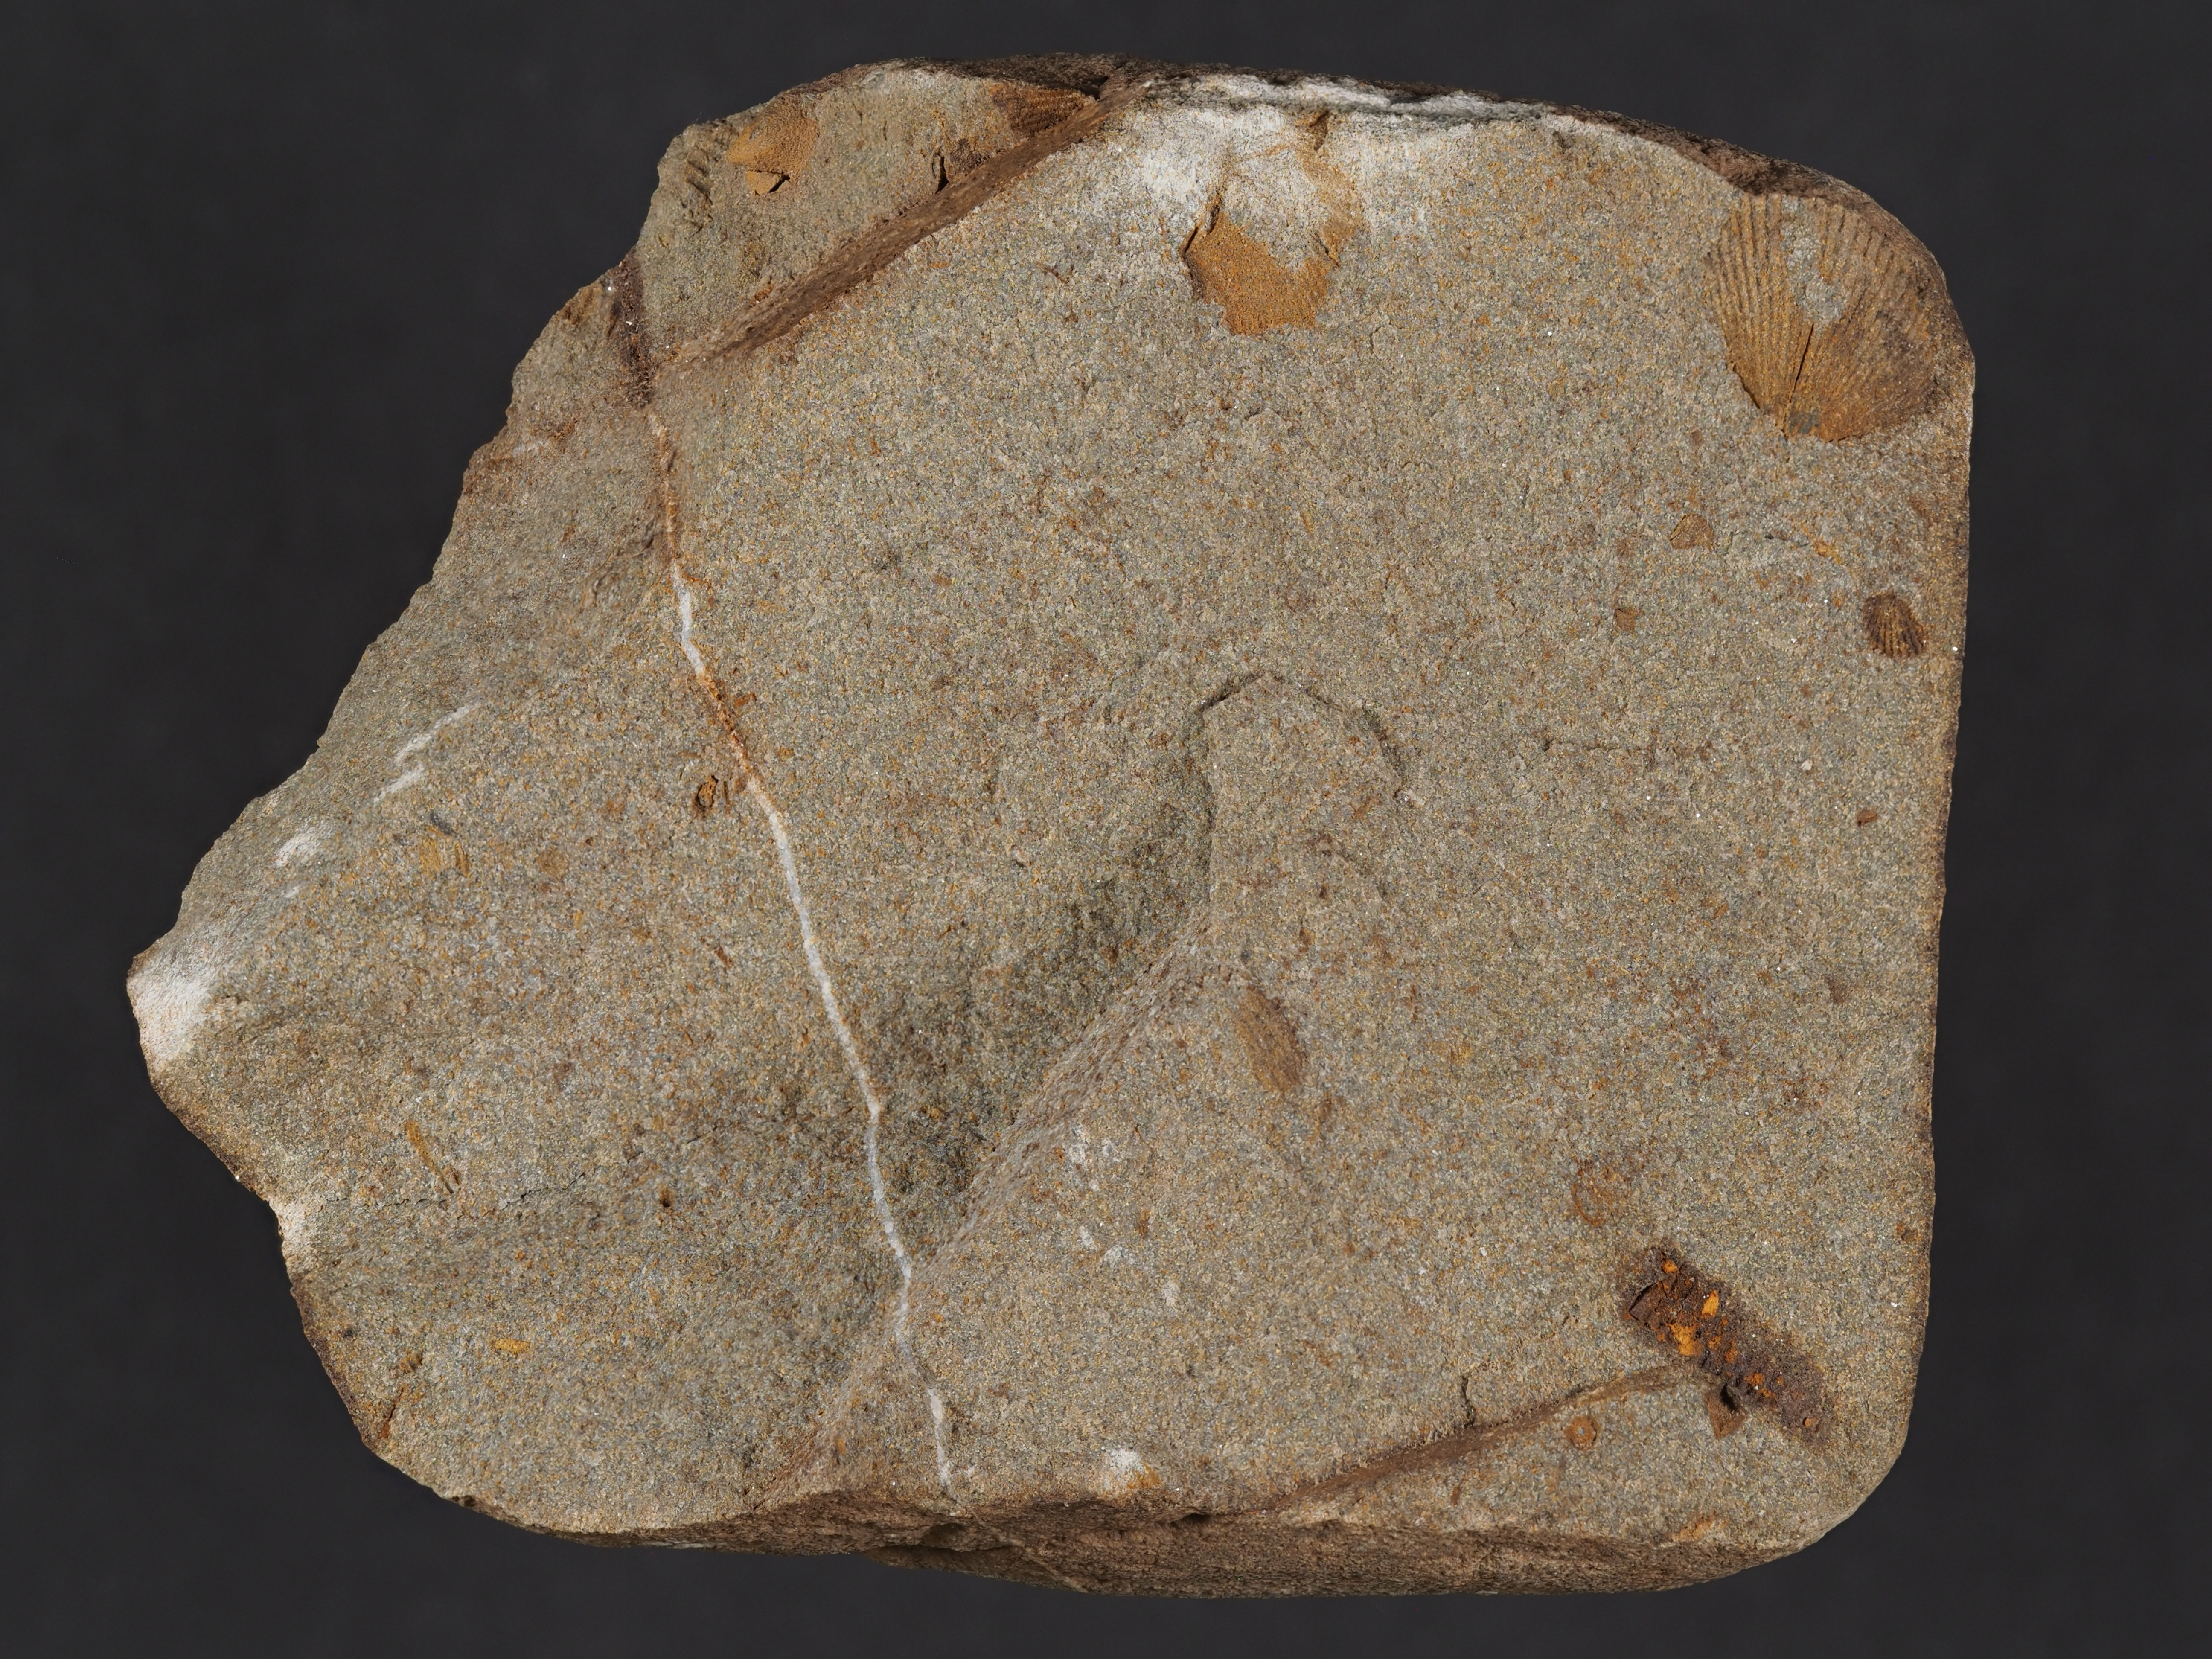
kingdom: Animalia
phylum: Mollusca
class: Bivalvia
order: Ostreida
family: Pterineidae
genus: Leptodesma
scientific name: Leptodesma
